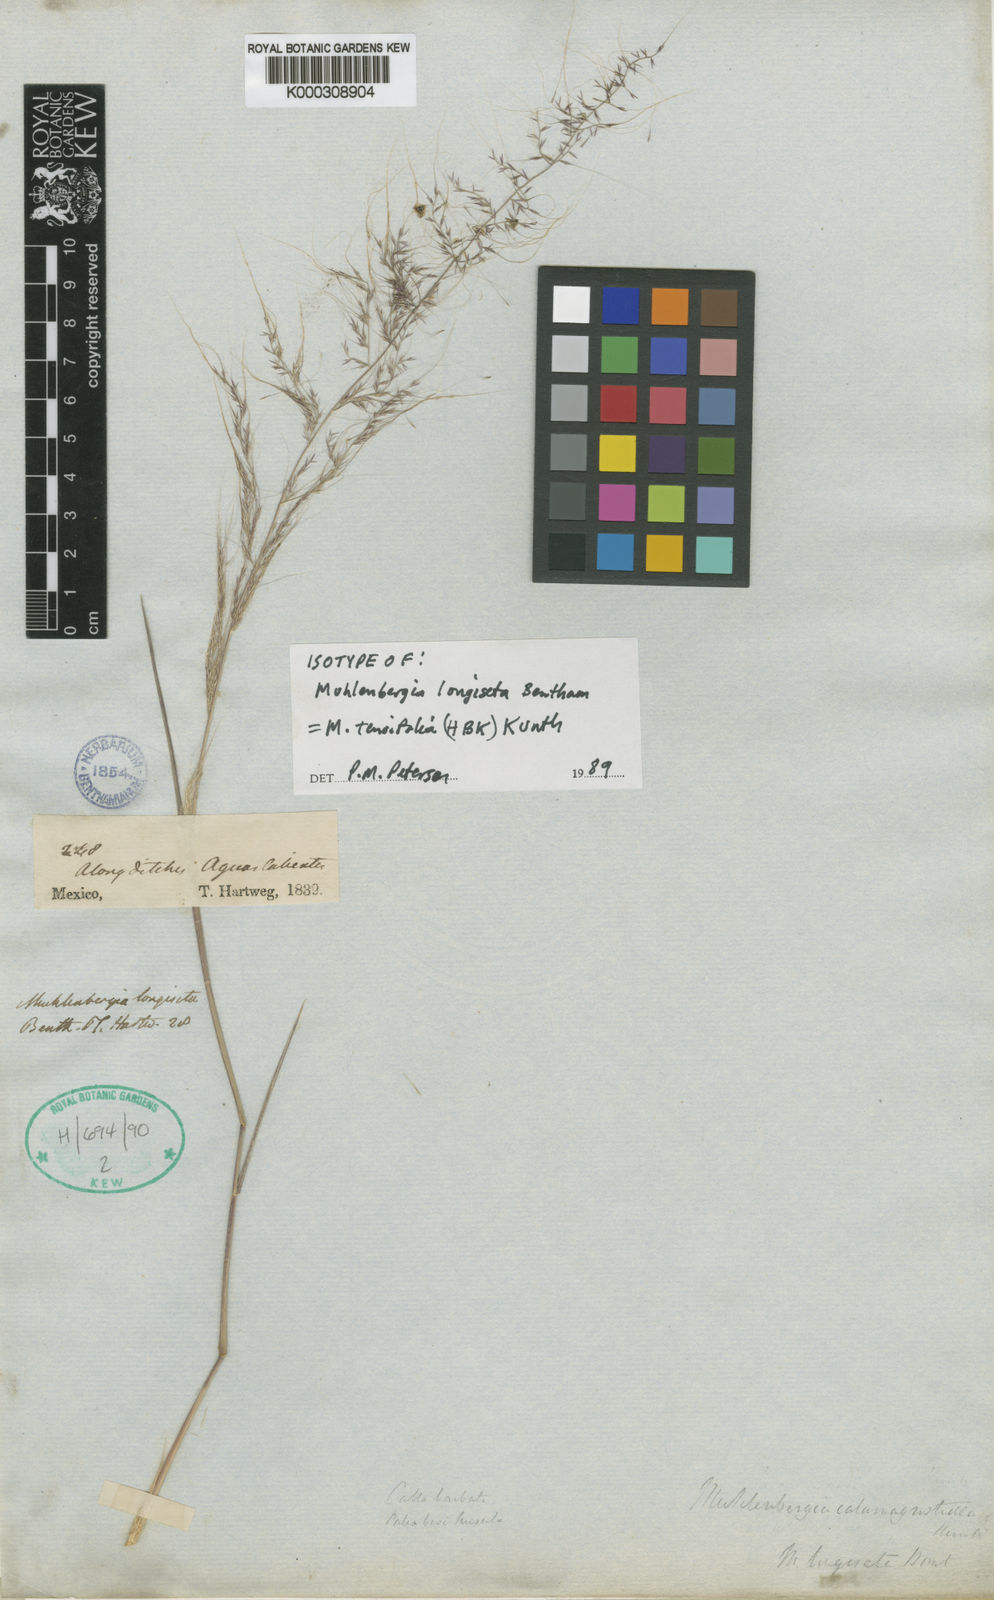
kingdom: Plantae
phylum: Tracheophyta
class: Liliopsida
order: Poales
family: Poaceae
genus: Muhlenbergia
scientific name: Muhlenbergia tenuifolia
